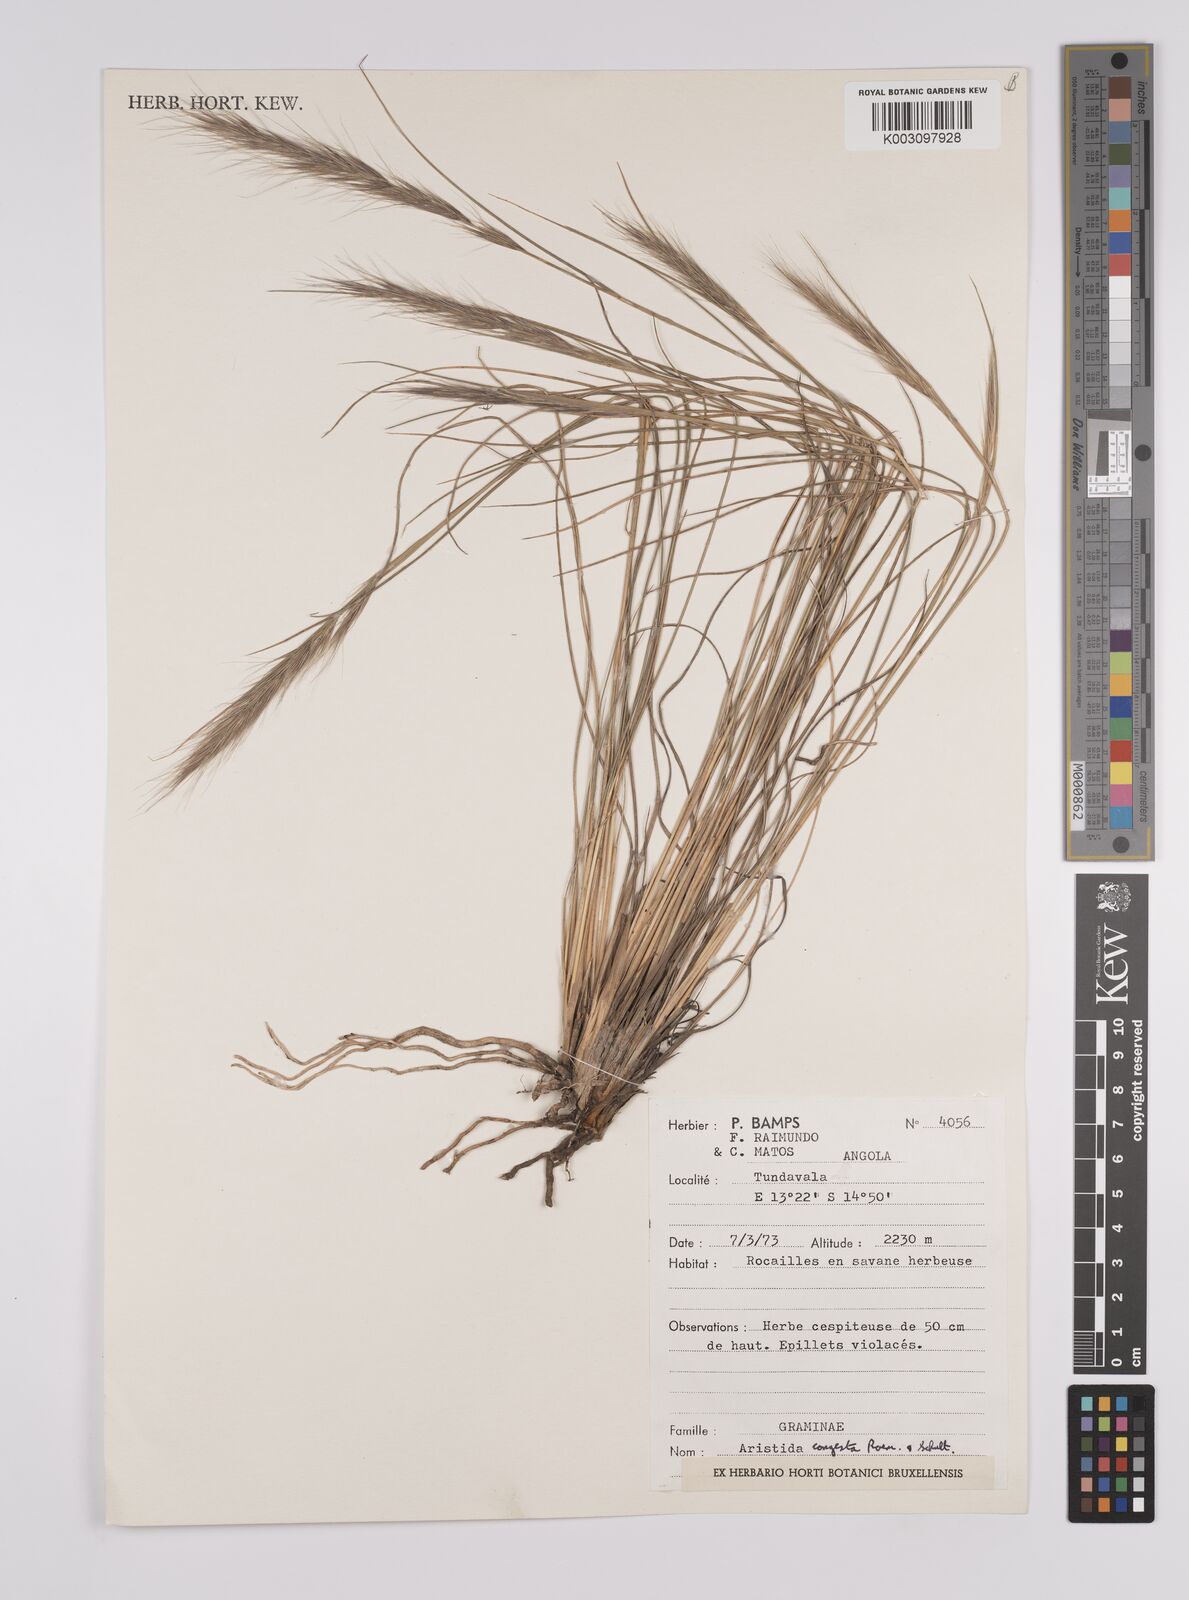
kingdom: Plantae
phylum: Tracheophyta
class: Liliopsida
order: Poales
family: Poaceae
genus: Aristida
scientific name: Aristida congesta
